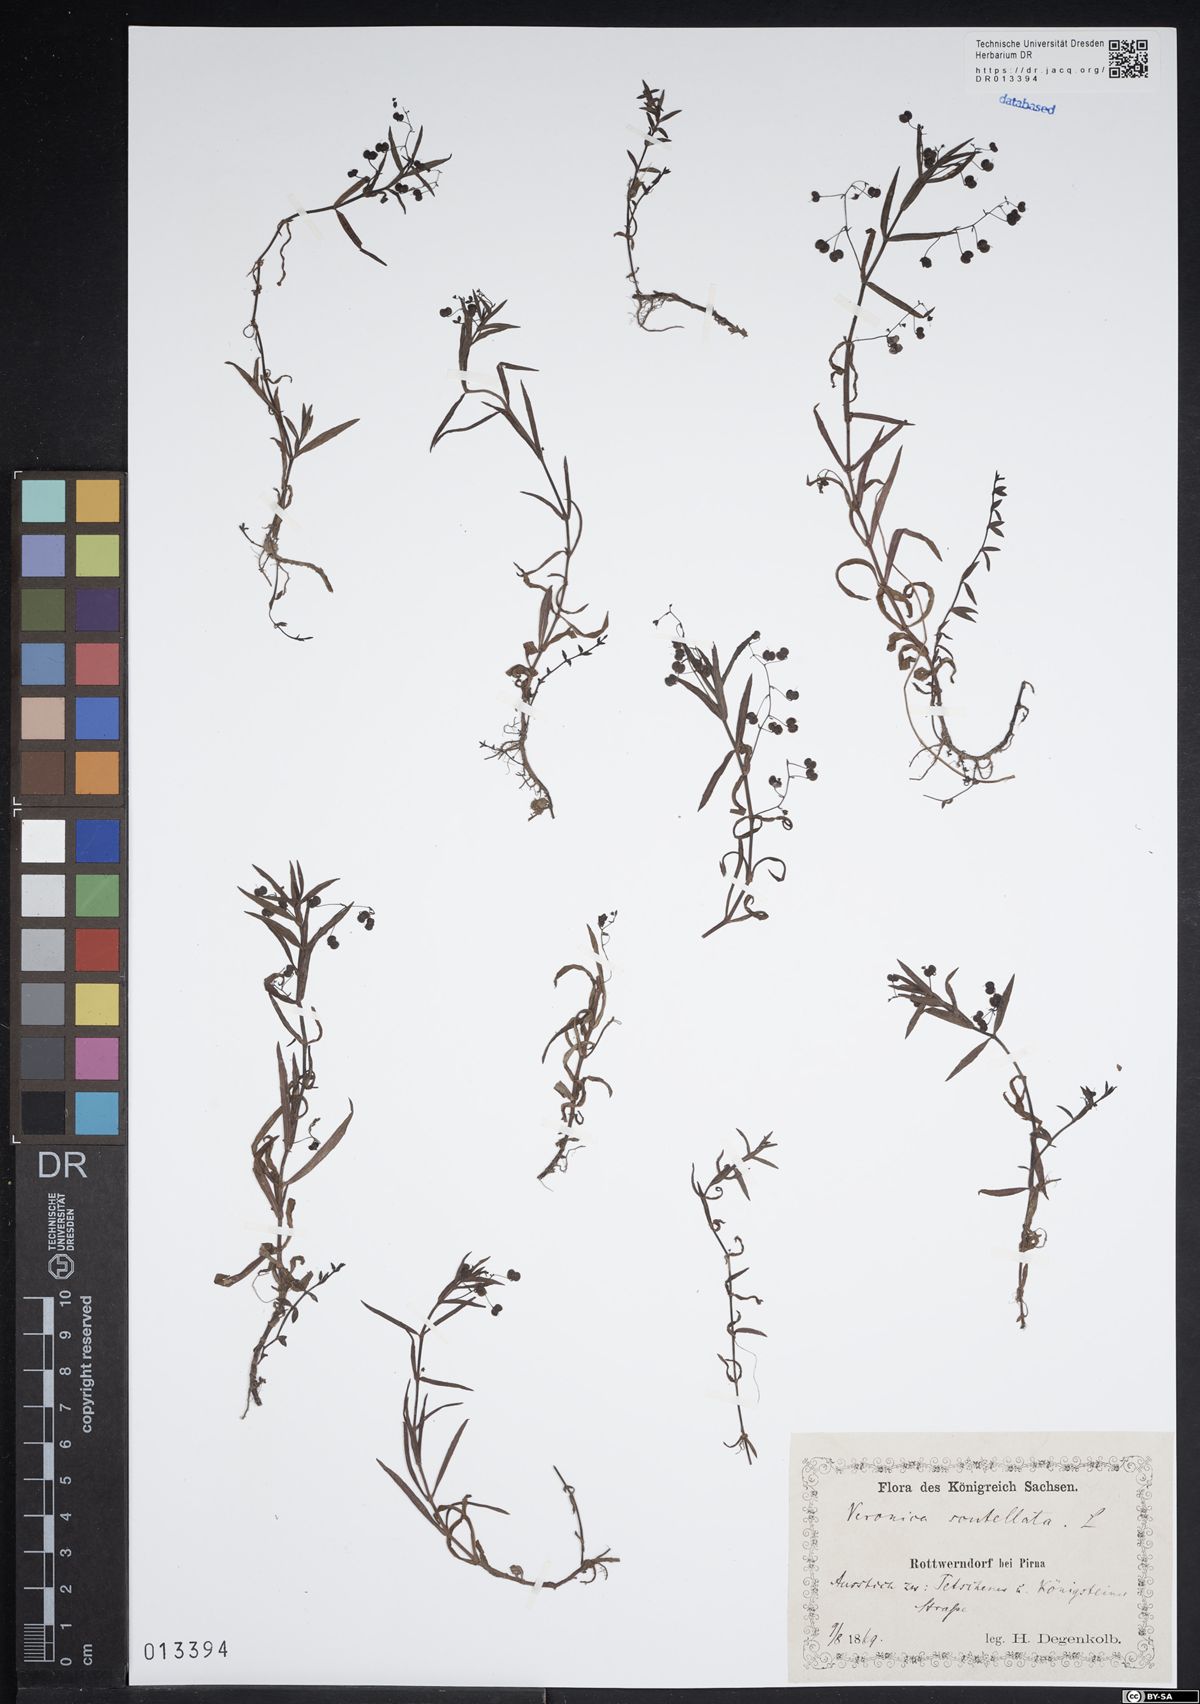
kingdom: Plantae
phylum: Tracheophyta
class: Magnoliopsida
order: Lamiales
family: Plantaginaceae
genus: Veronica
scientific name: Veronica scutellata
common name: Marsh speedwell
